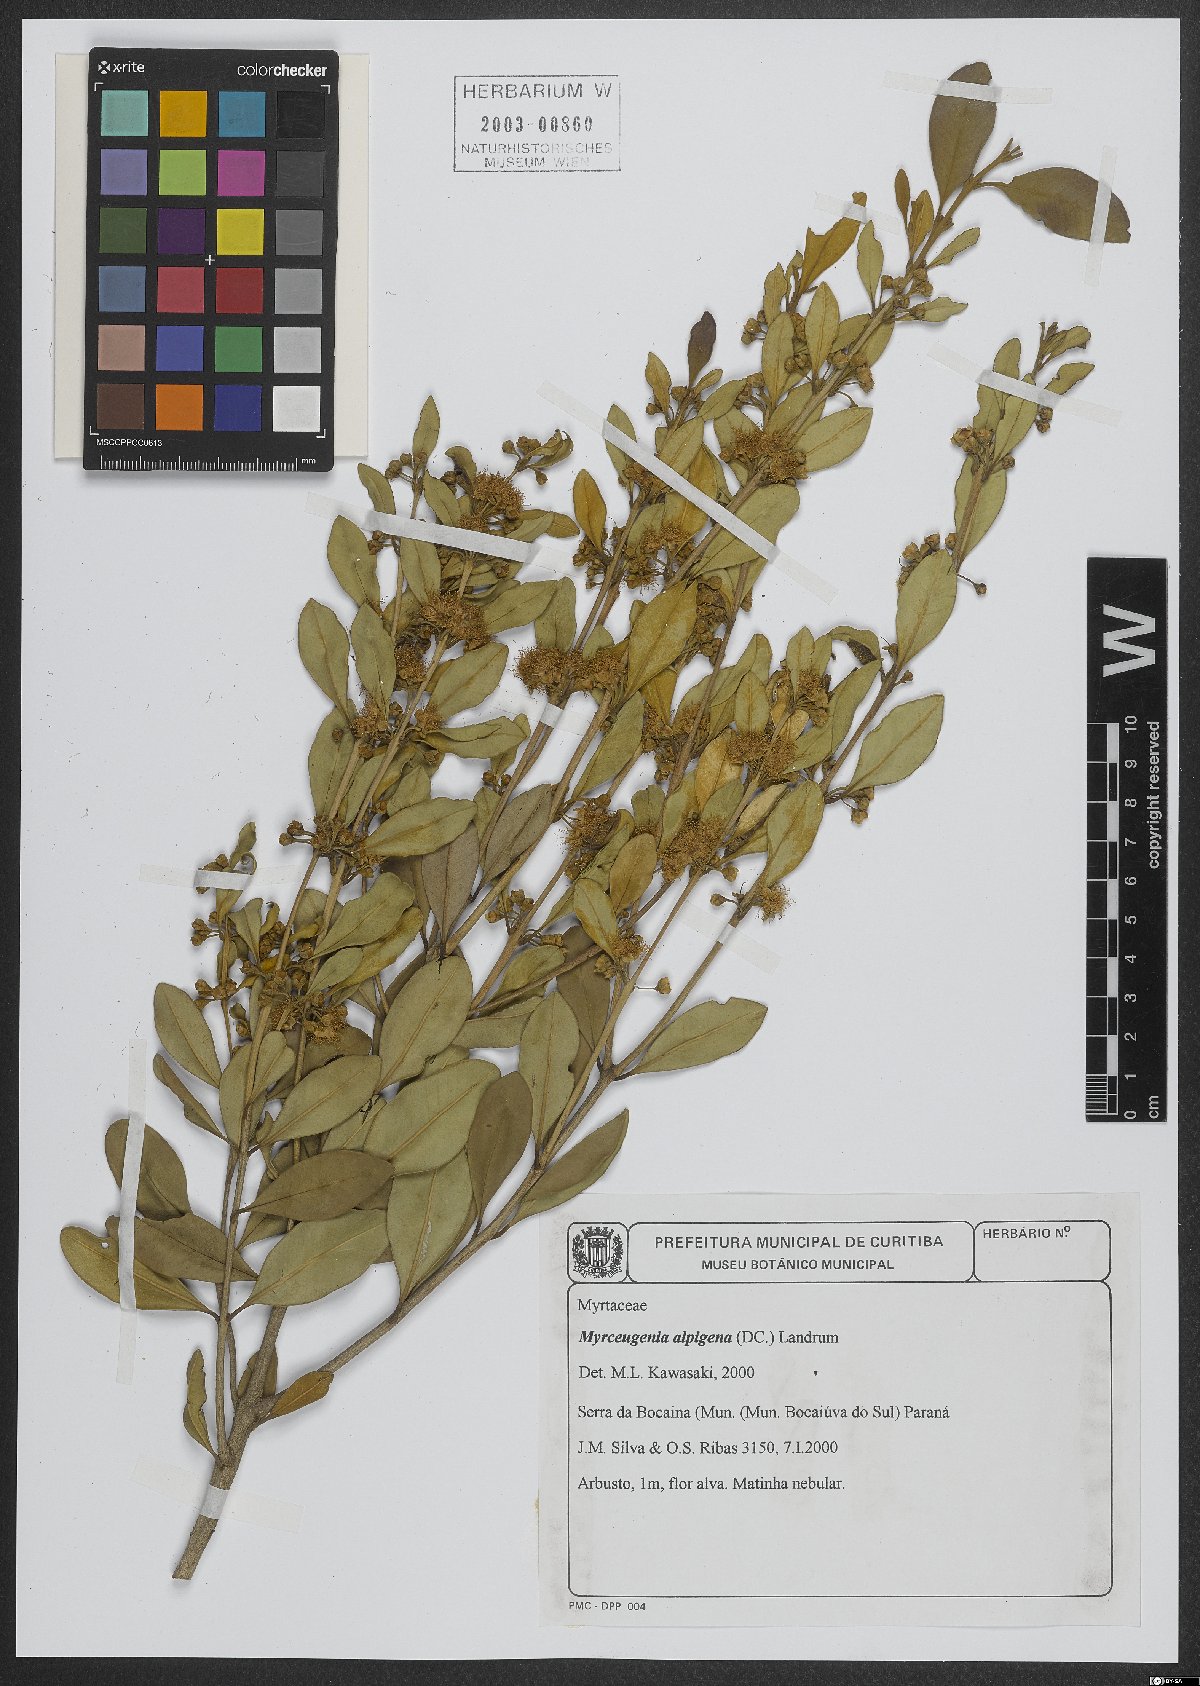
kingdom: Plantae
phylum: Tracheophyta
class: Magnoliopsida
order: Myrtales
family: Myrtaceae
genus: Myrceugenia
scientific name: Myrceugenia alpigena
